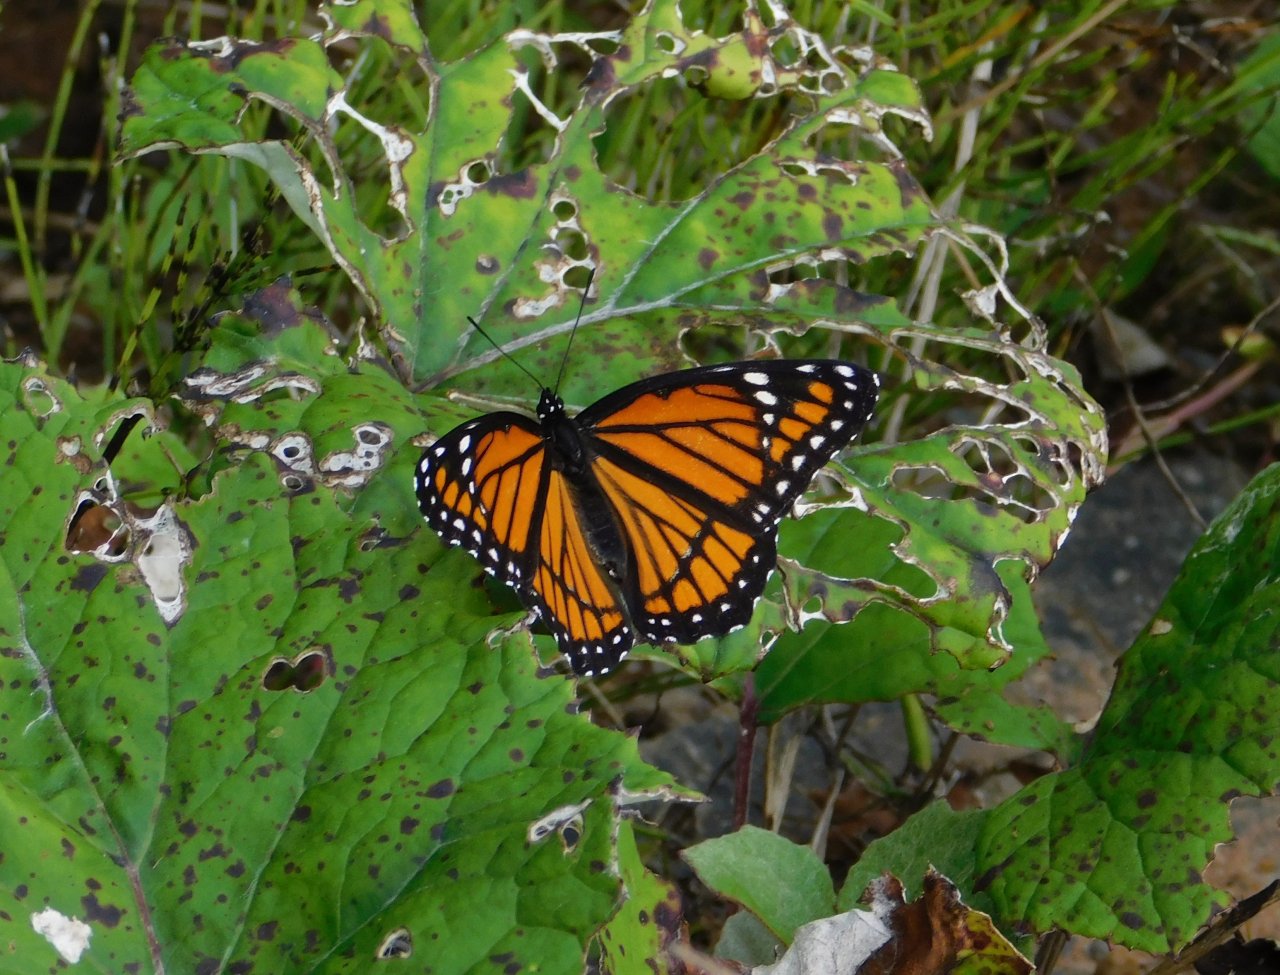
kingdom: Animalia
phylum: Arthropoda
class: Insecta
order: Lepidoptera
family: Nymphalidae
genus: Limenitis
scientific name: Limenitis archippus
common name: Viceroy
